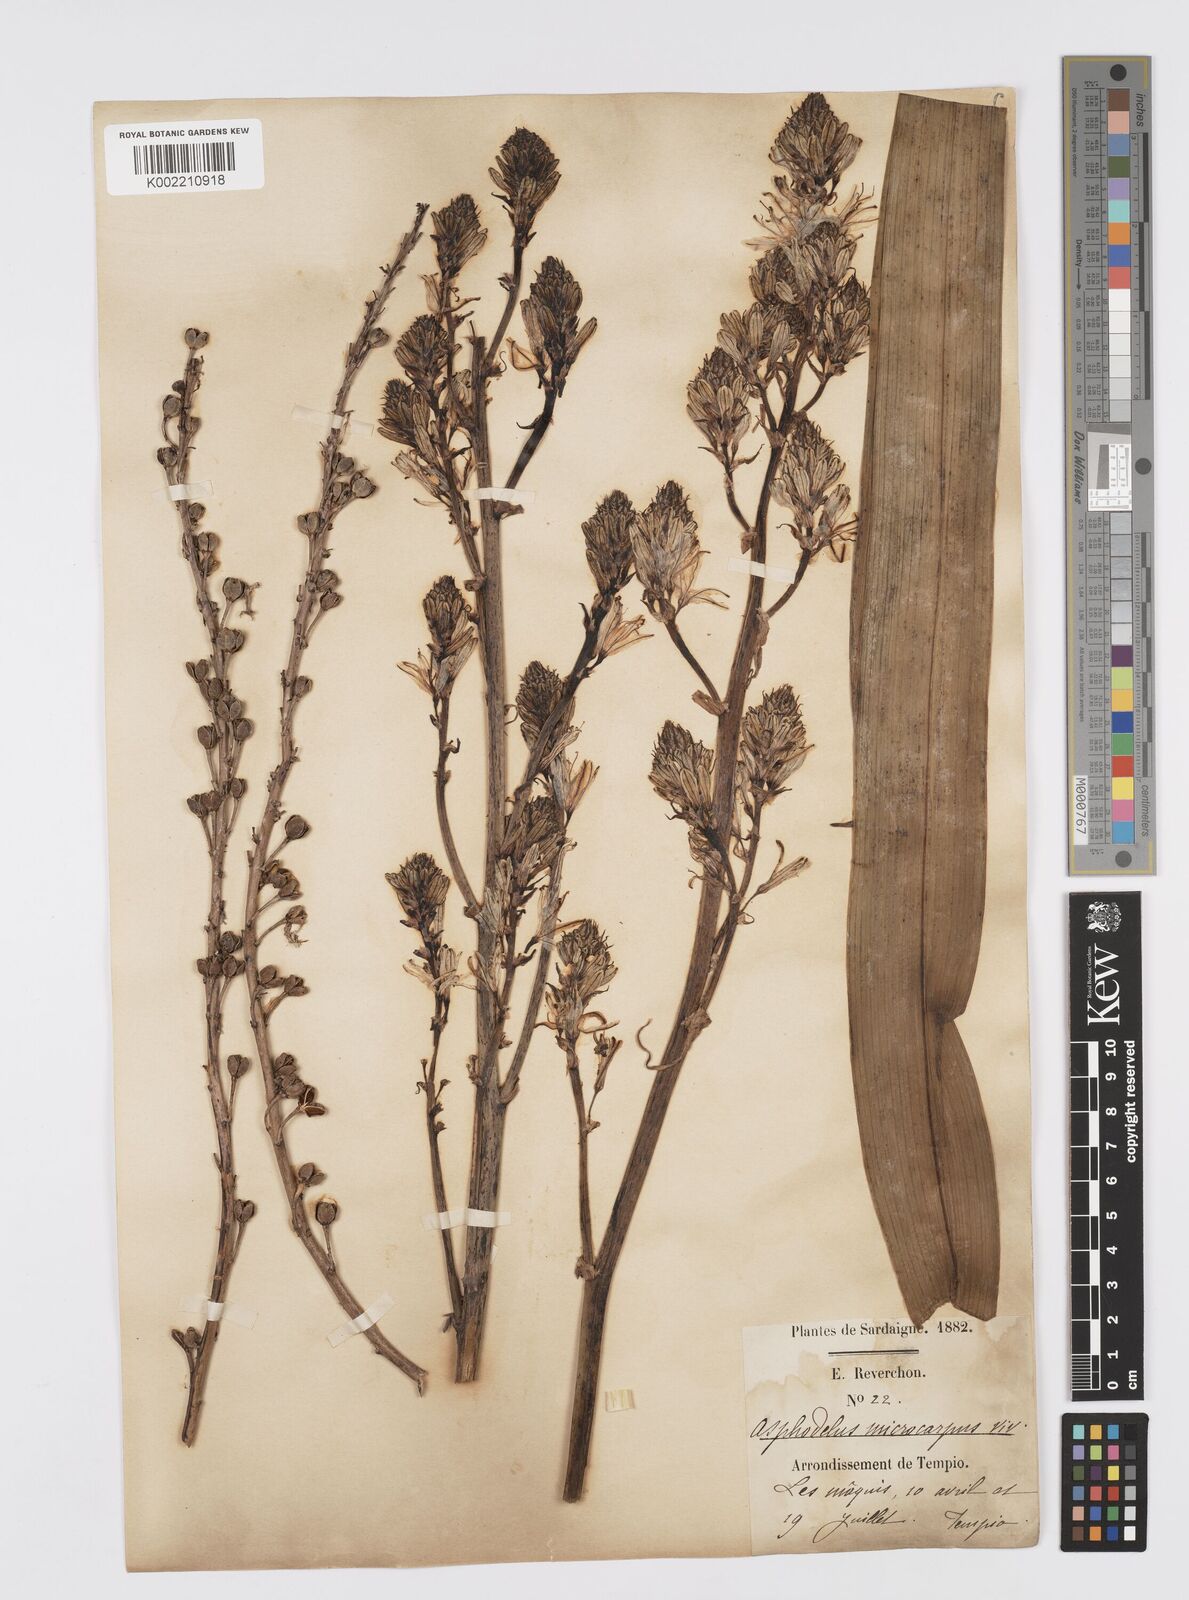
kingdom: Plantae
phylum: Tracheophyta
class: Liliopsida
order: Asparagales
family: Asphodelaceae
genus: Asphodelus
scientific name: Asphodelus ramosus
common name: Silverrod
